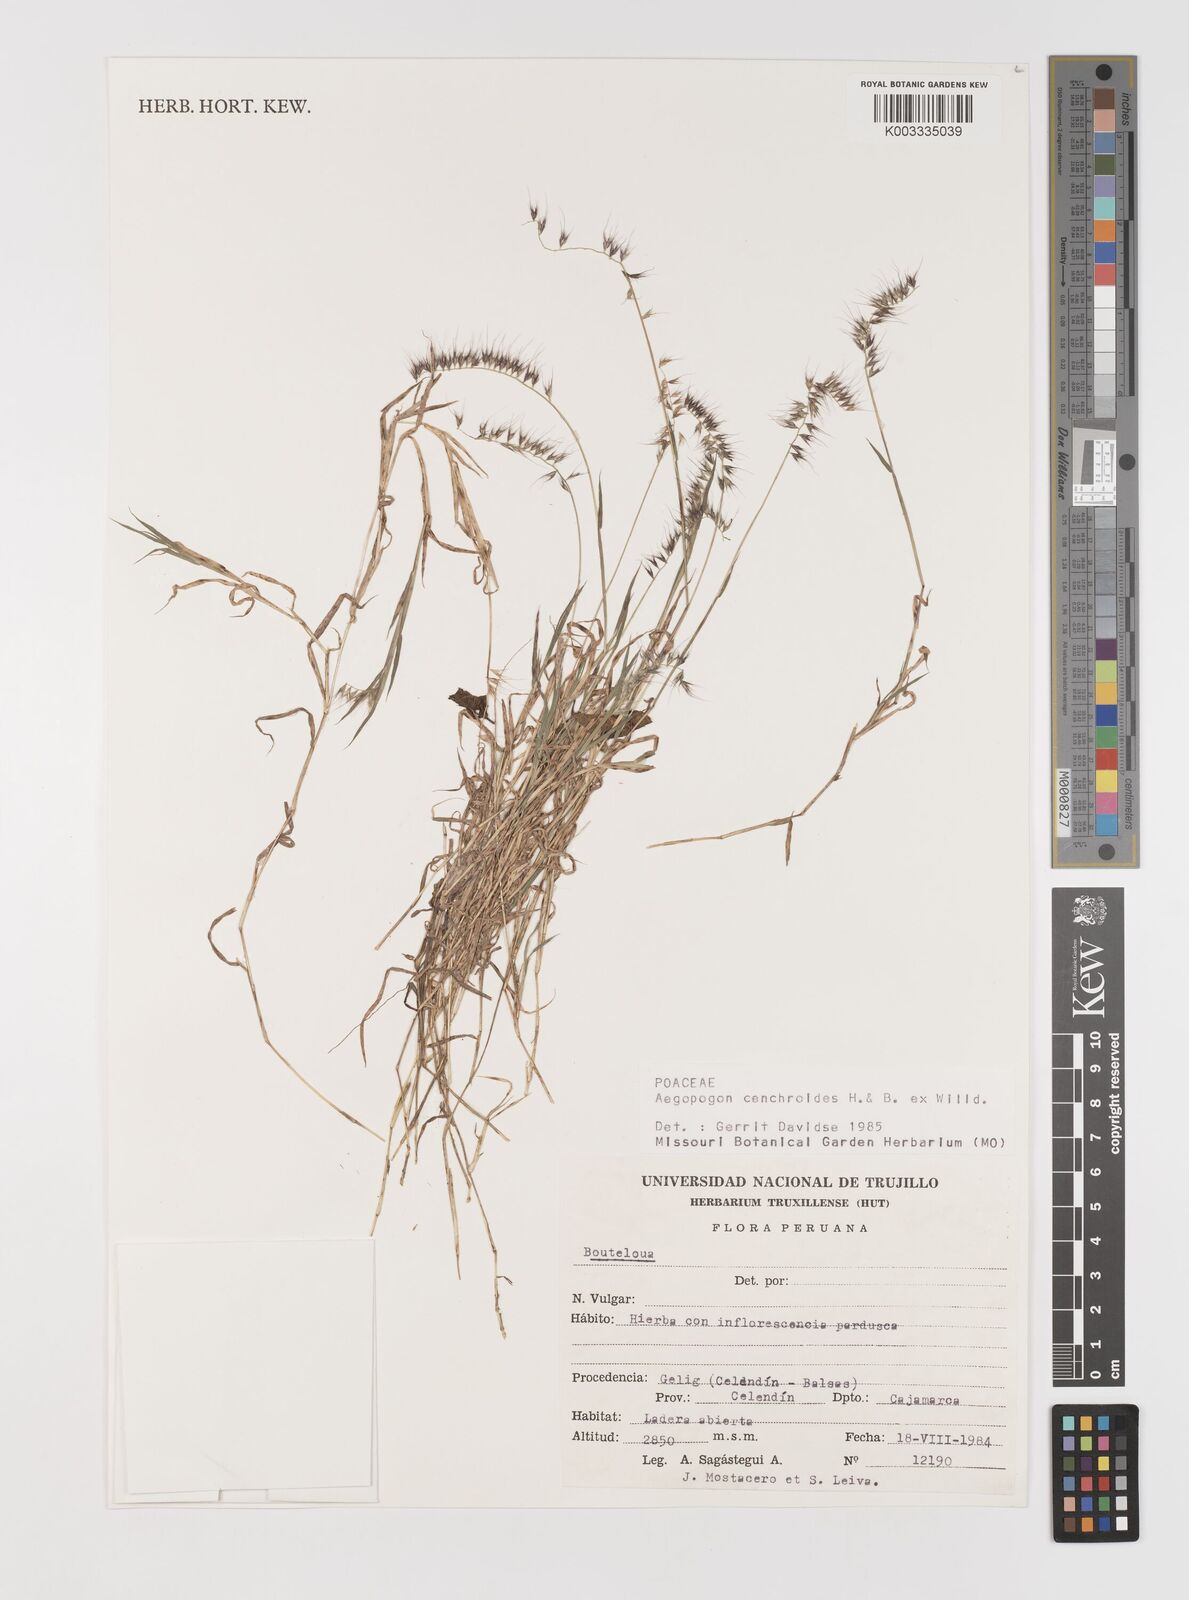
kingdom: Plantae
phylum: Tracheophyta
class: Liliopsida
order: Poales
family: Poaceae
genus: Muhlenbergia
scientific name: Muhlenbergia cenchroides
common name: Relaxgrass
